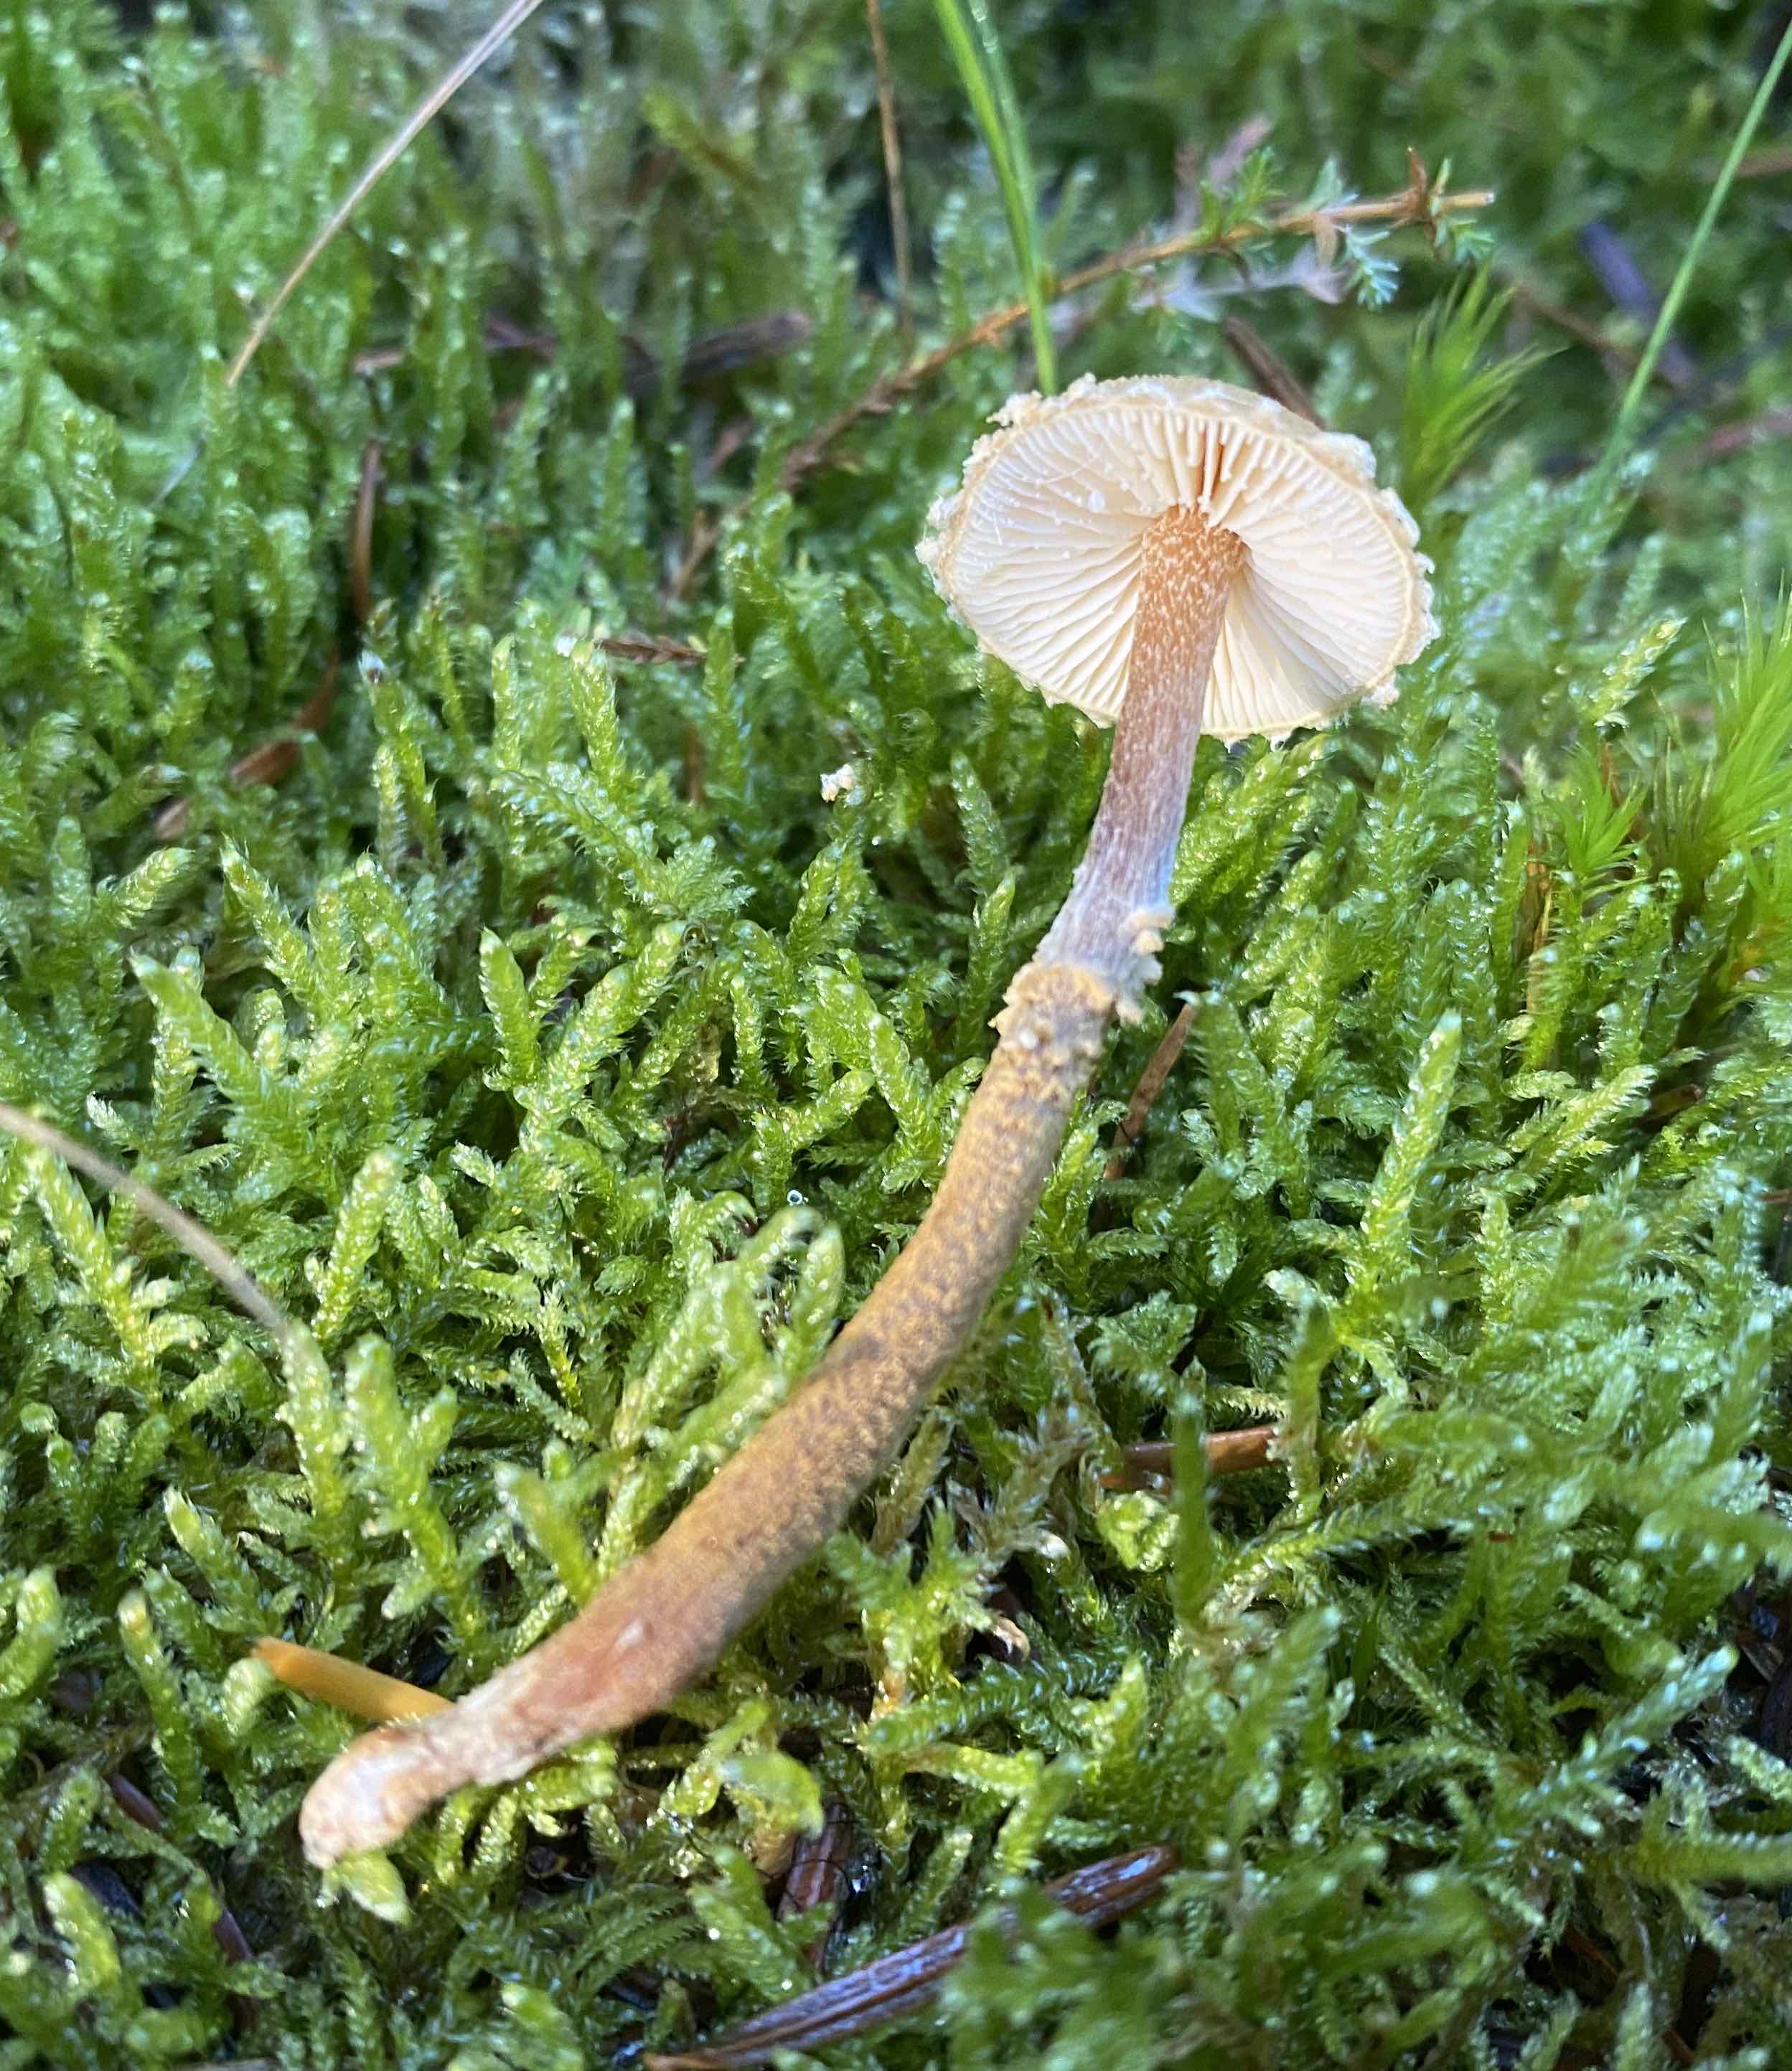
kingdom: Fungi
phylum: Basidiomycota
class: Agaricomycetes
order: Agaricales
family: Tricholomataceae
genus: Cystoderma
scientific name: Cystoderma amianthinum
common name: okkergul grynhat
